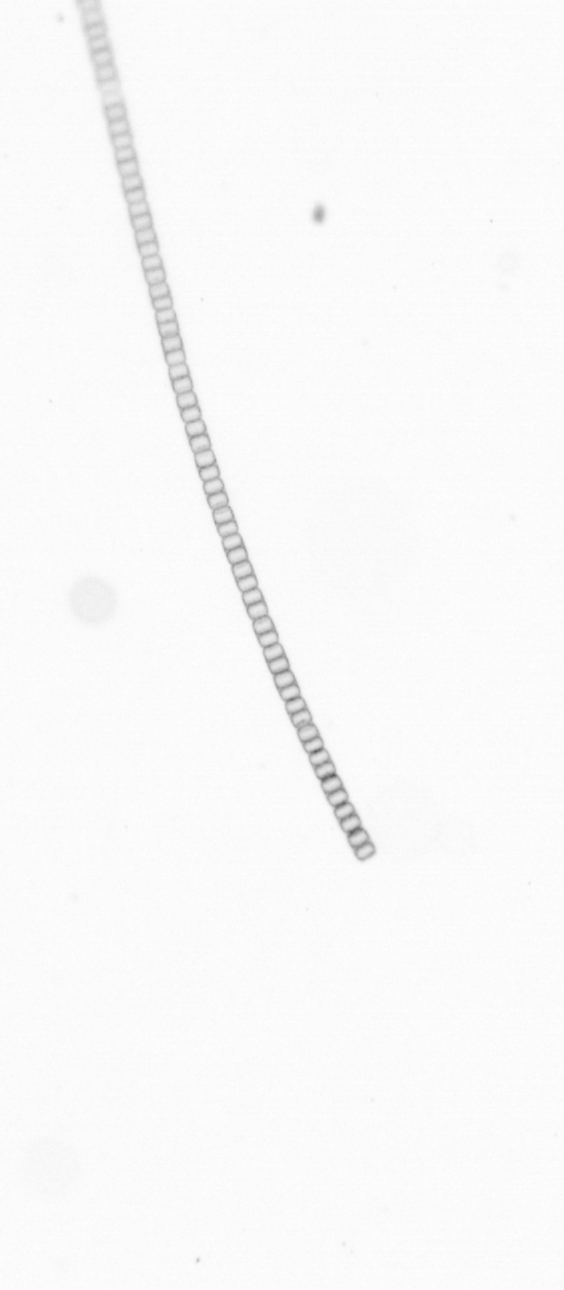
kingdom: Chromista
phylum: Ochrophyta
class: Bacillariophyceae
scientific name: Bacillariophyceae
